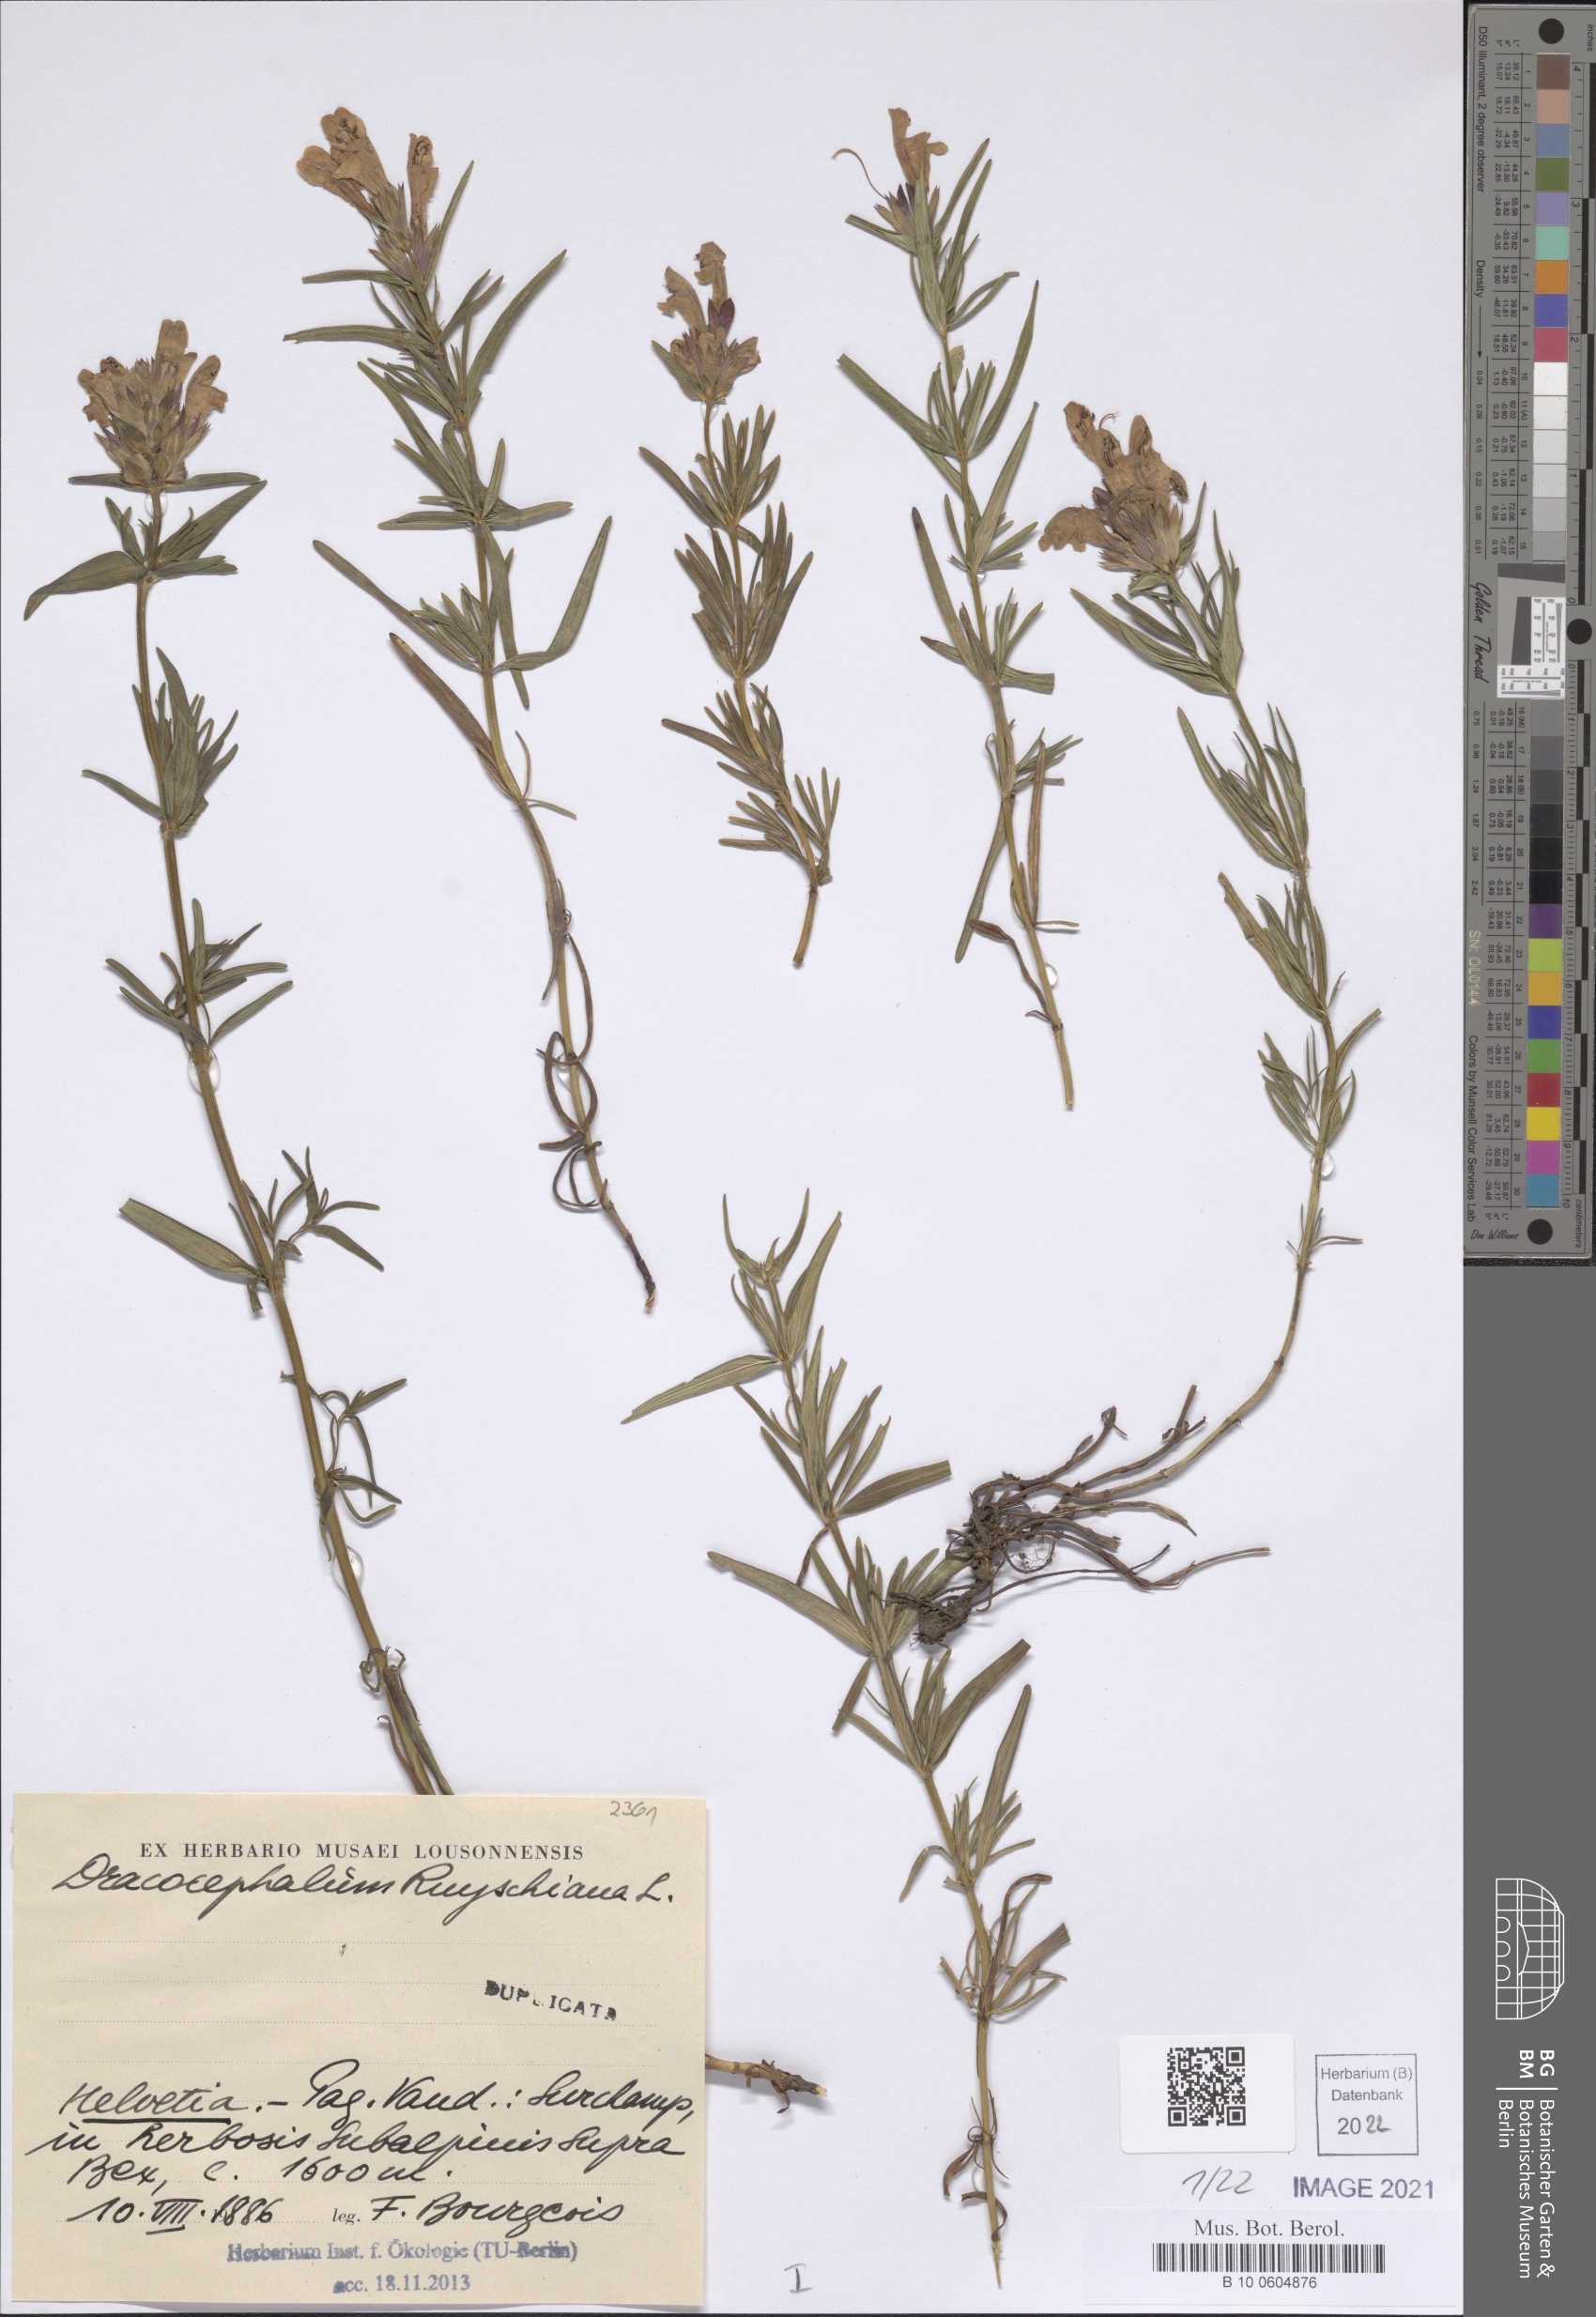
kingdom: Plantae
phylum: Tracheophyta
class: Magnoliopsida
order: Lamiales
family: Lamiaceae
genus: Dracocephalum
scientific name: Dracocephalum ruyschiana
